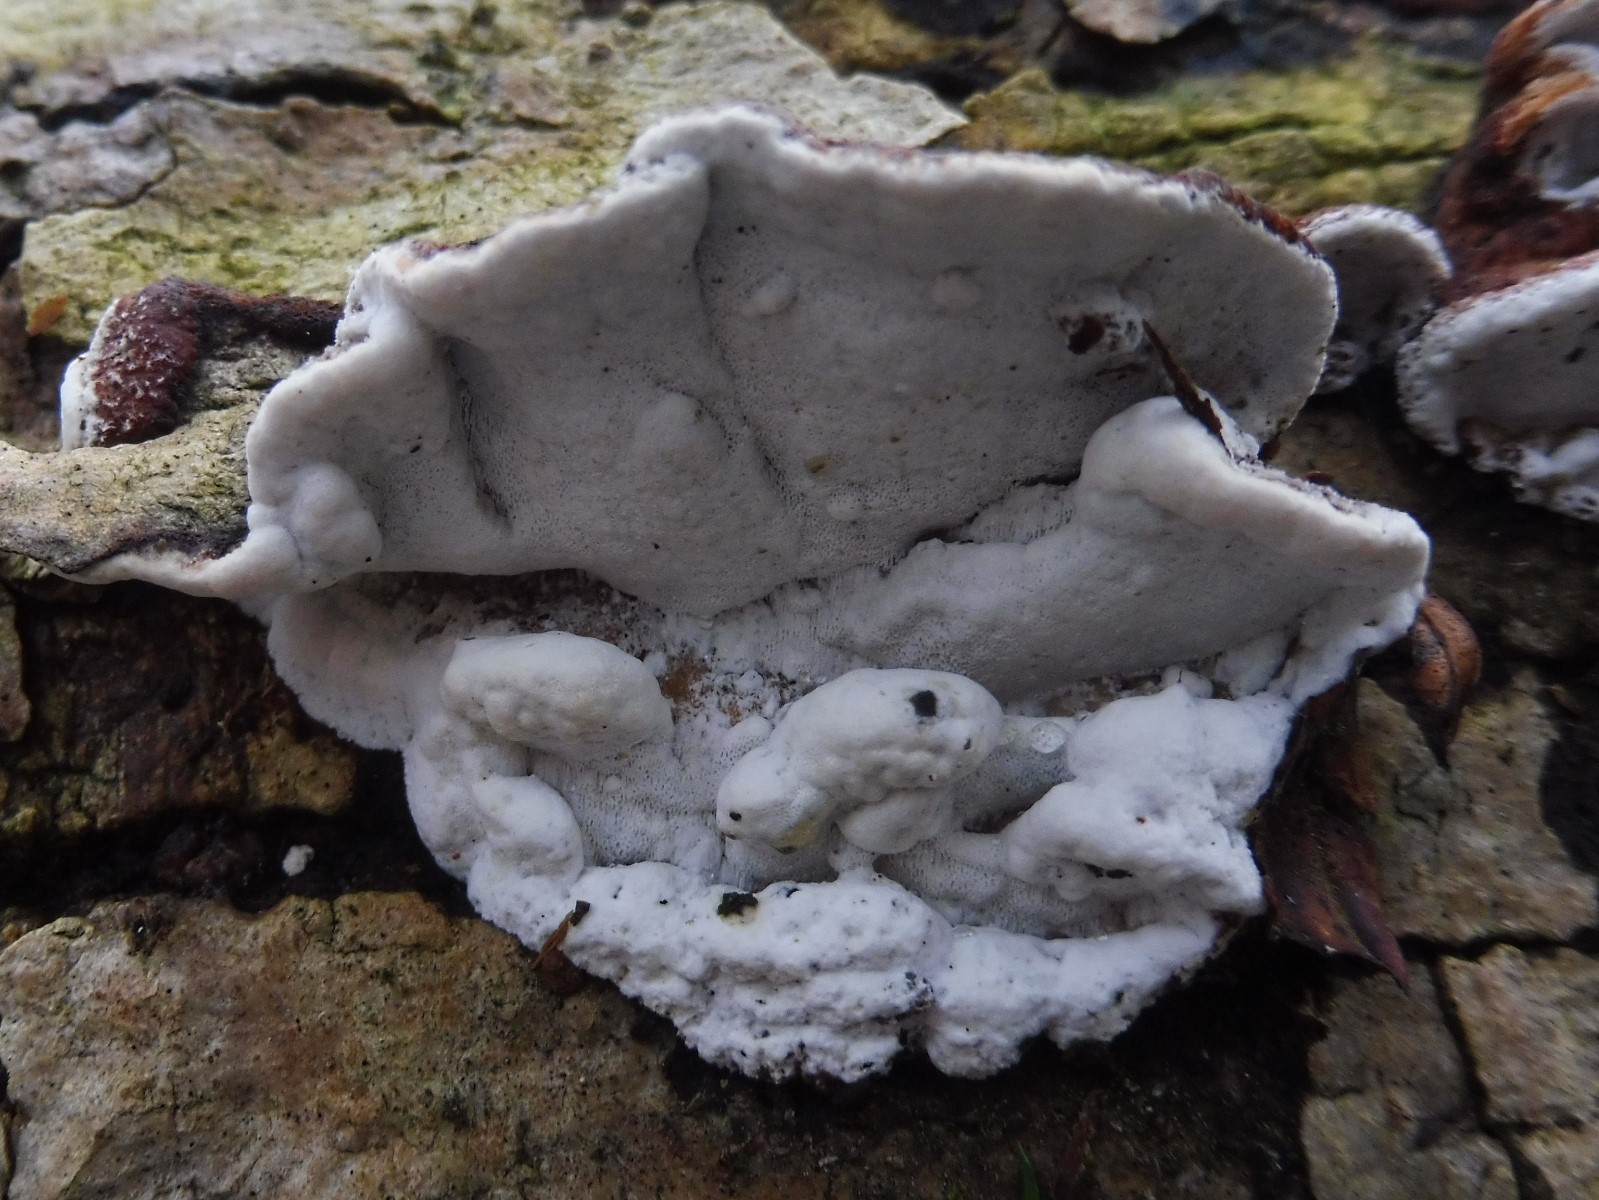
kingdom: Fungi
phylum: Basidiomycota
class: Agaricomycetes
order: Polyporales
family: Incrustoporiaceae
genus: Skeletocutis
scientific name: Skeletocutis nemoralis
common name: stor krystalporesvamp
